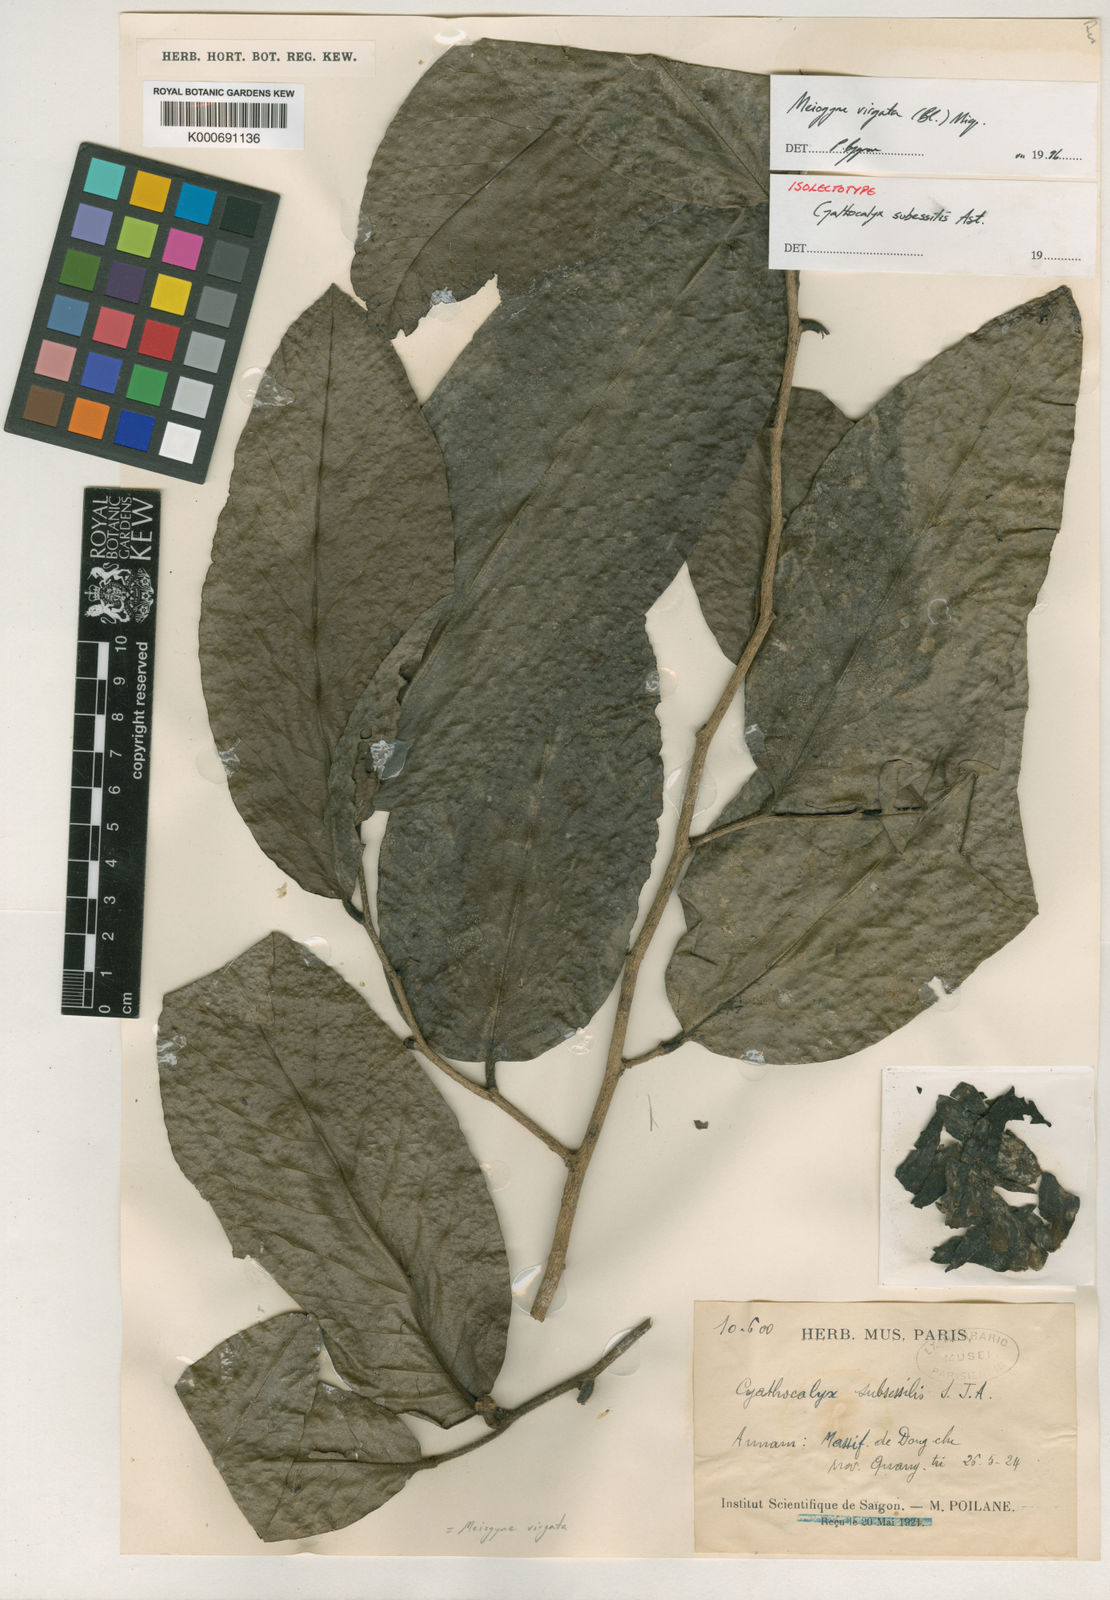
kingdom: Plantae
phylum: Tracheophyta
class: Magnoliopsida
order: Magnoliales
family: Annonaceae
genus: Meiogyne
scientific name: Meiogyne virgata
